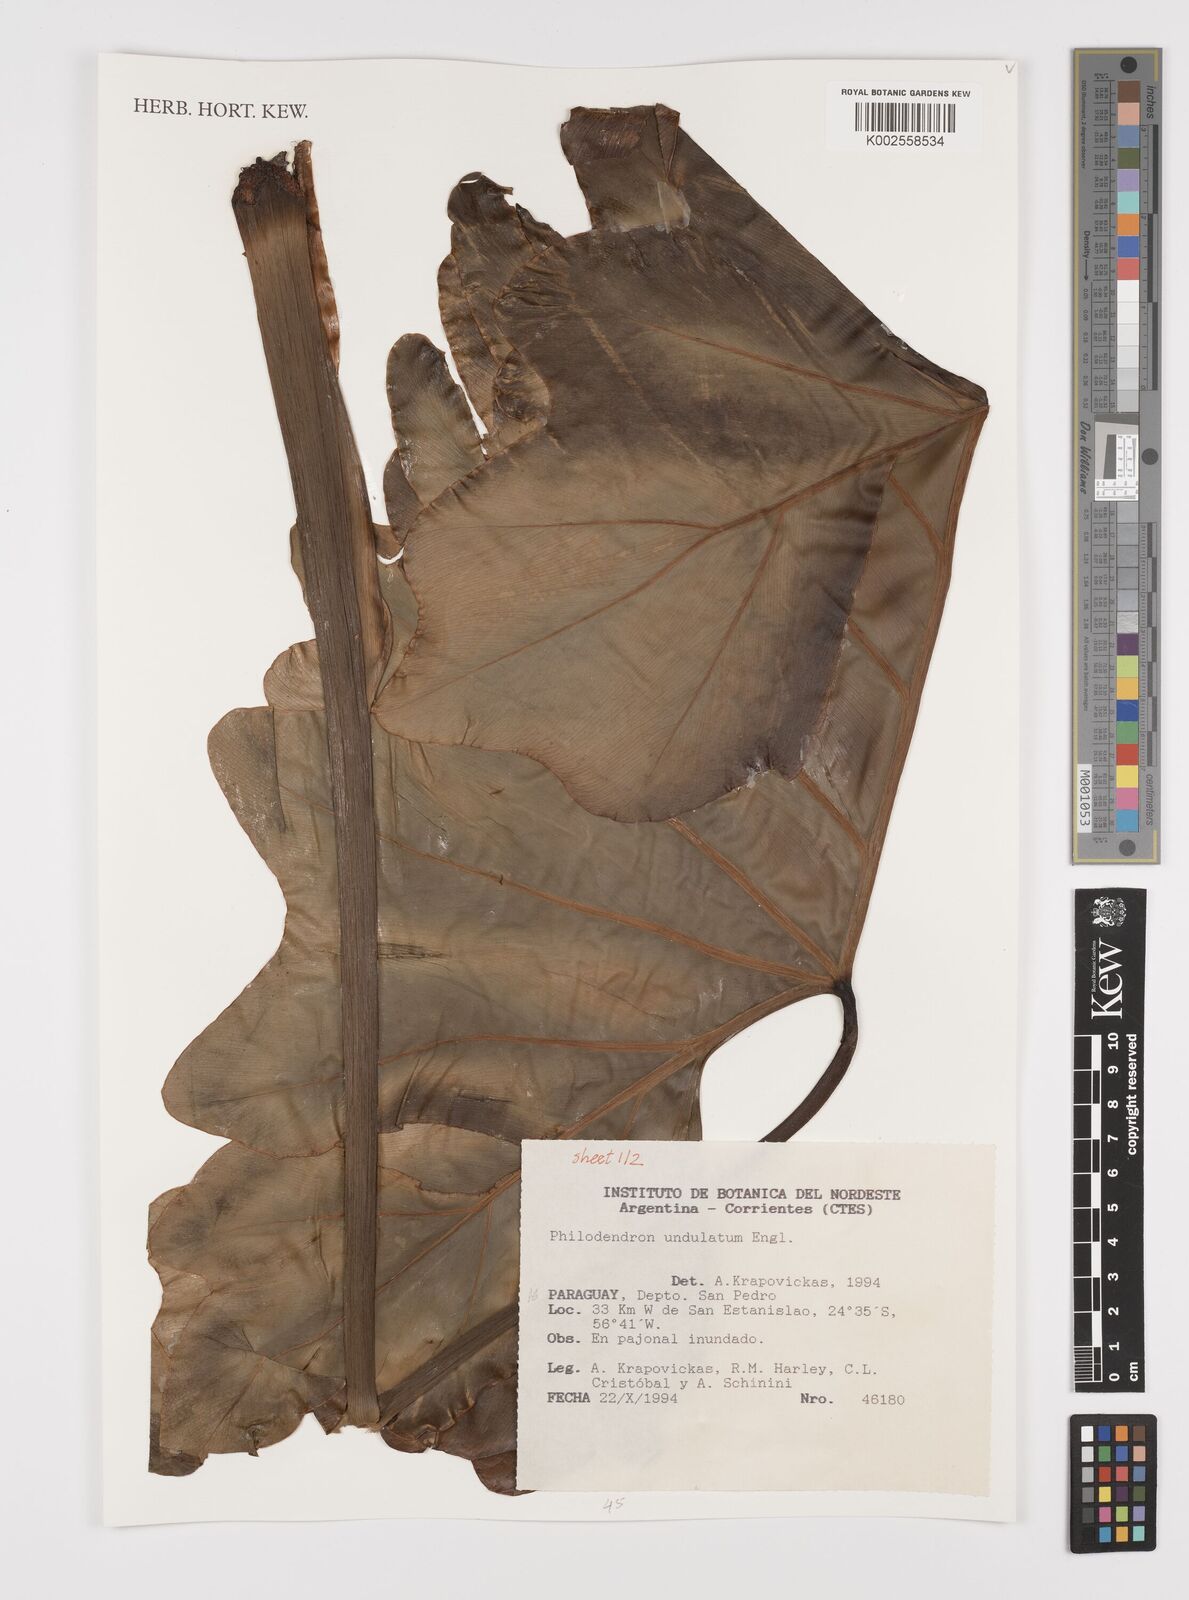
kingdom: Plantae
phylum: Tracheophyta
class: Liliopsida
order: Alismatales
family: Araceae
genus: Thaumatophyllum
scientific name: Thaumatophyllum undulatum
